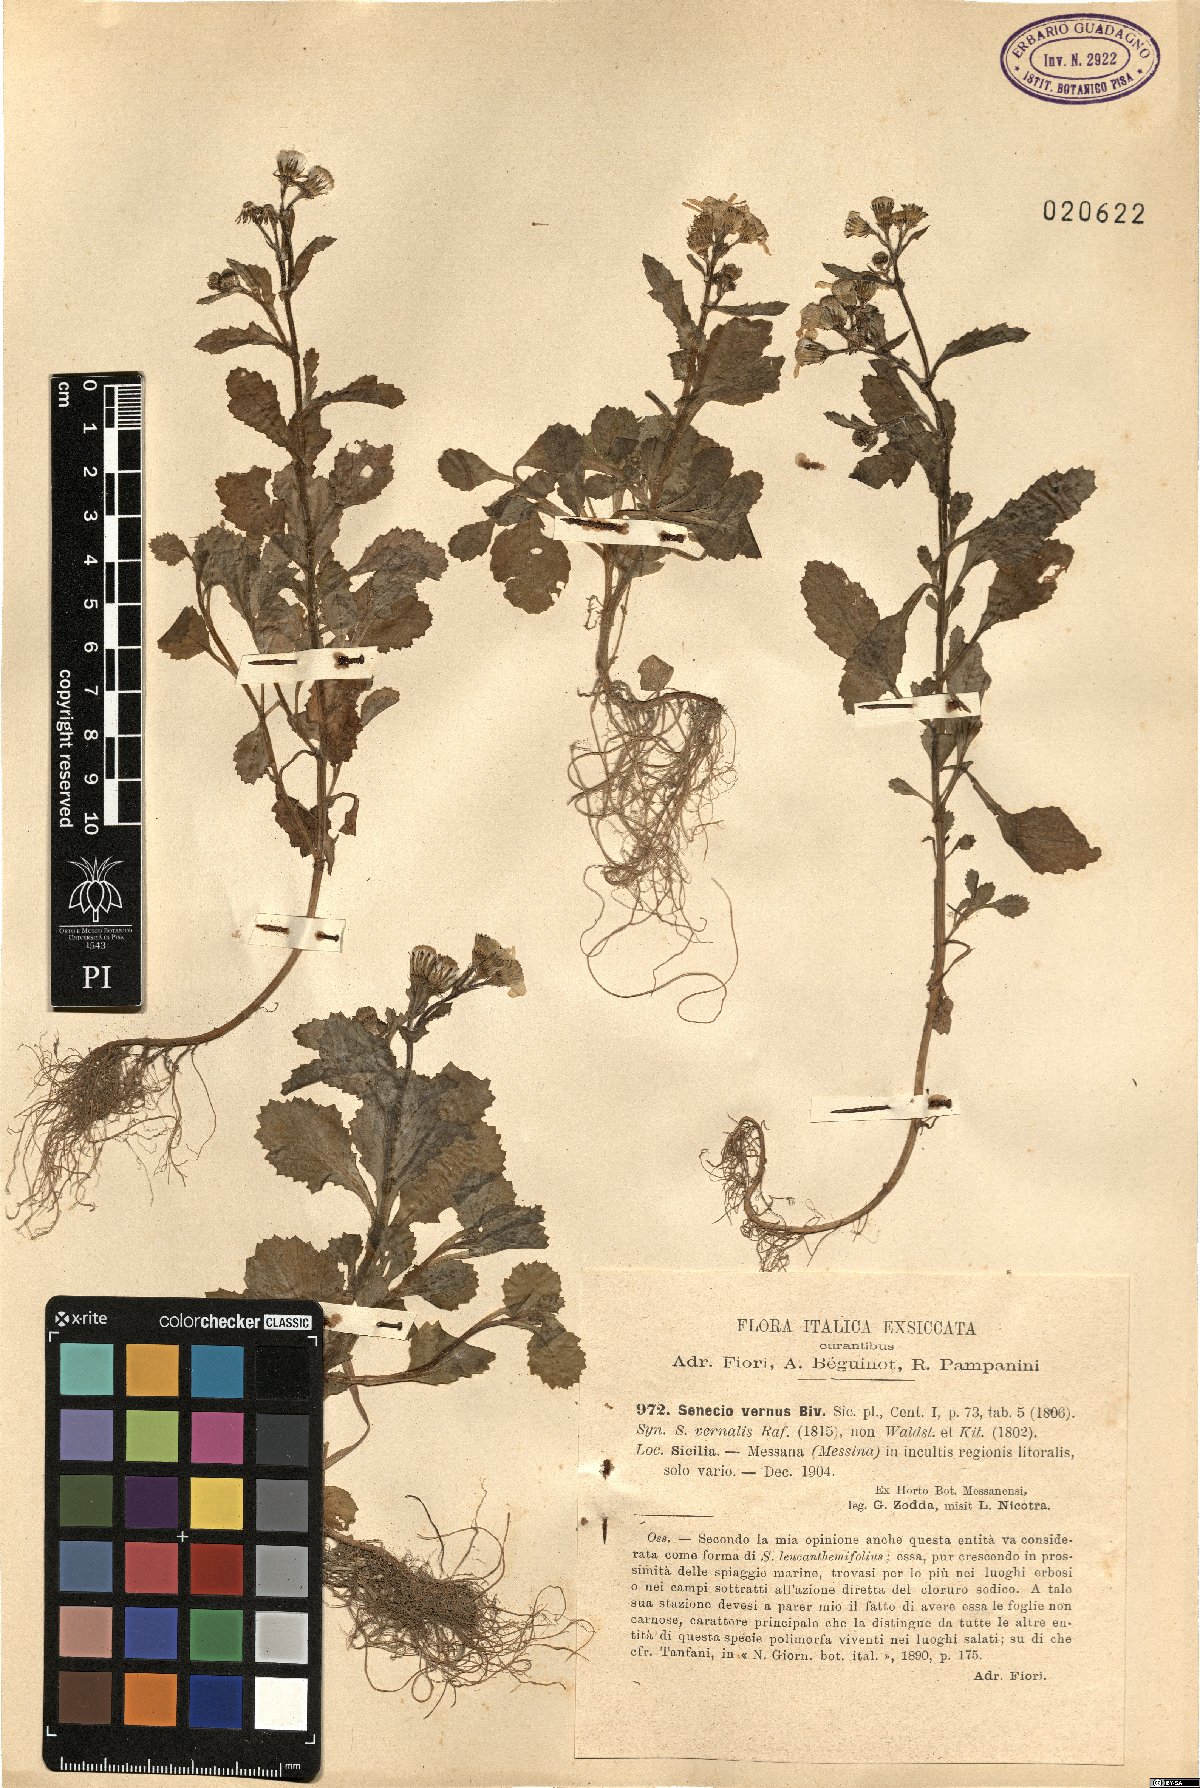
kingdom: Plantae
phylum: Tracheophyta
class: Magnoliopsida
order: Asterales
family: Asteraceae
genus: Senecio
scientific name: Senecio leucanthemifolius
